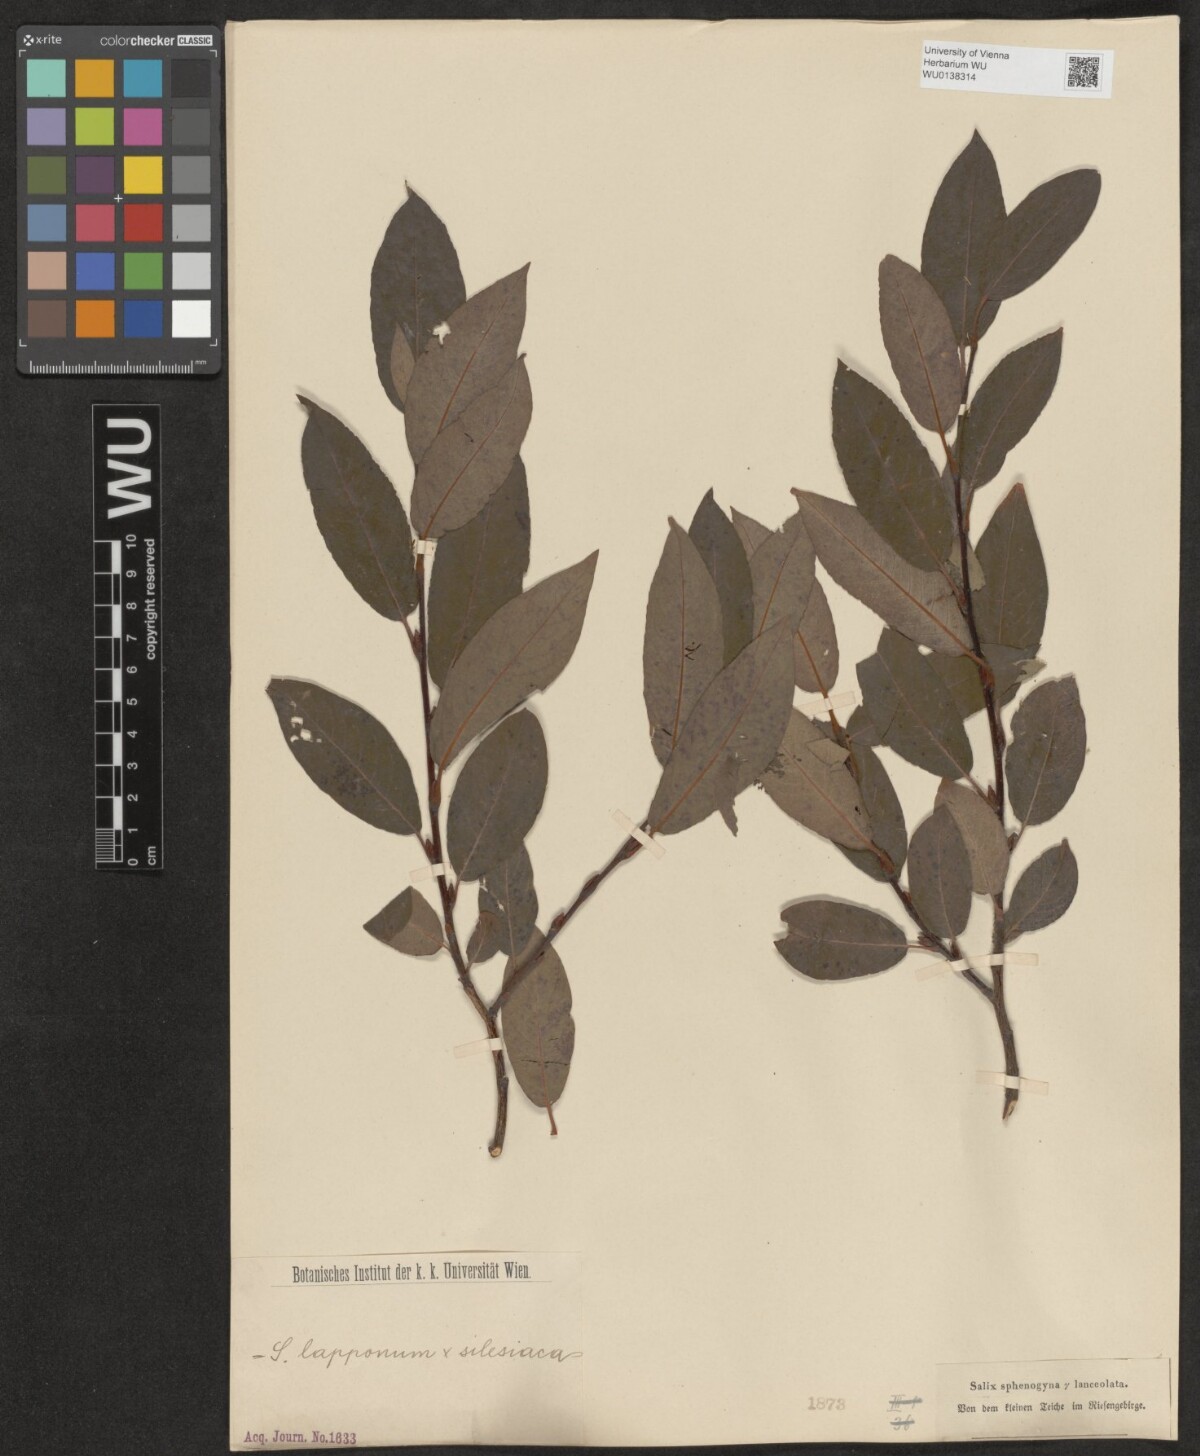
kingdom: Plantae
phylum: Tracheophyta
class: Magnoliopsida
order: Malpighiales
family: Salicaceae
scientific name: Salicaceae
